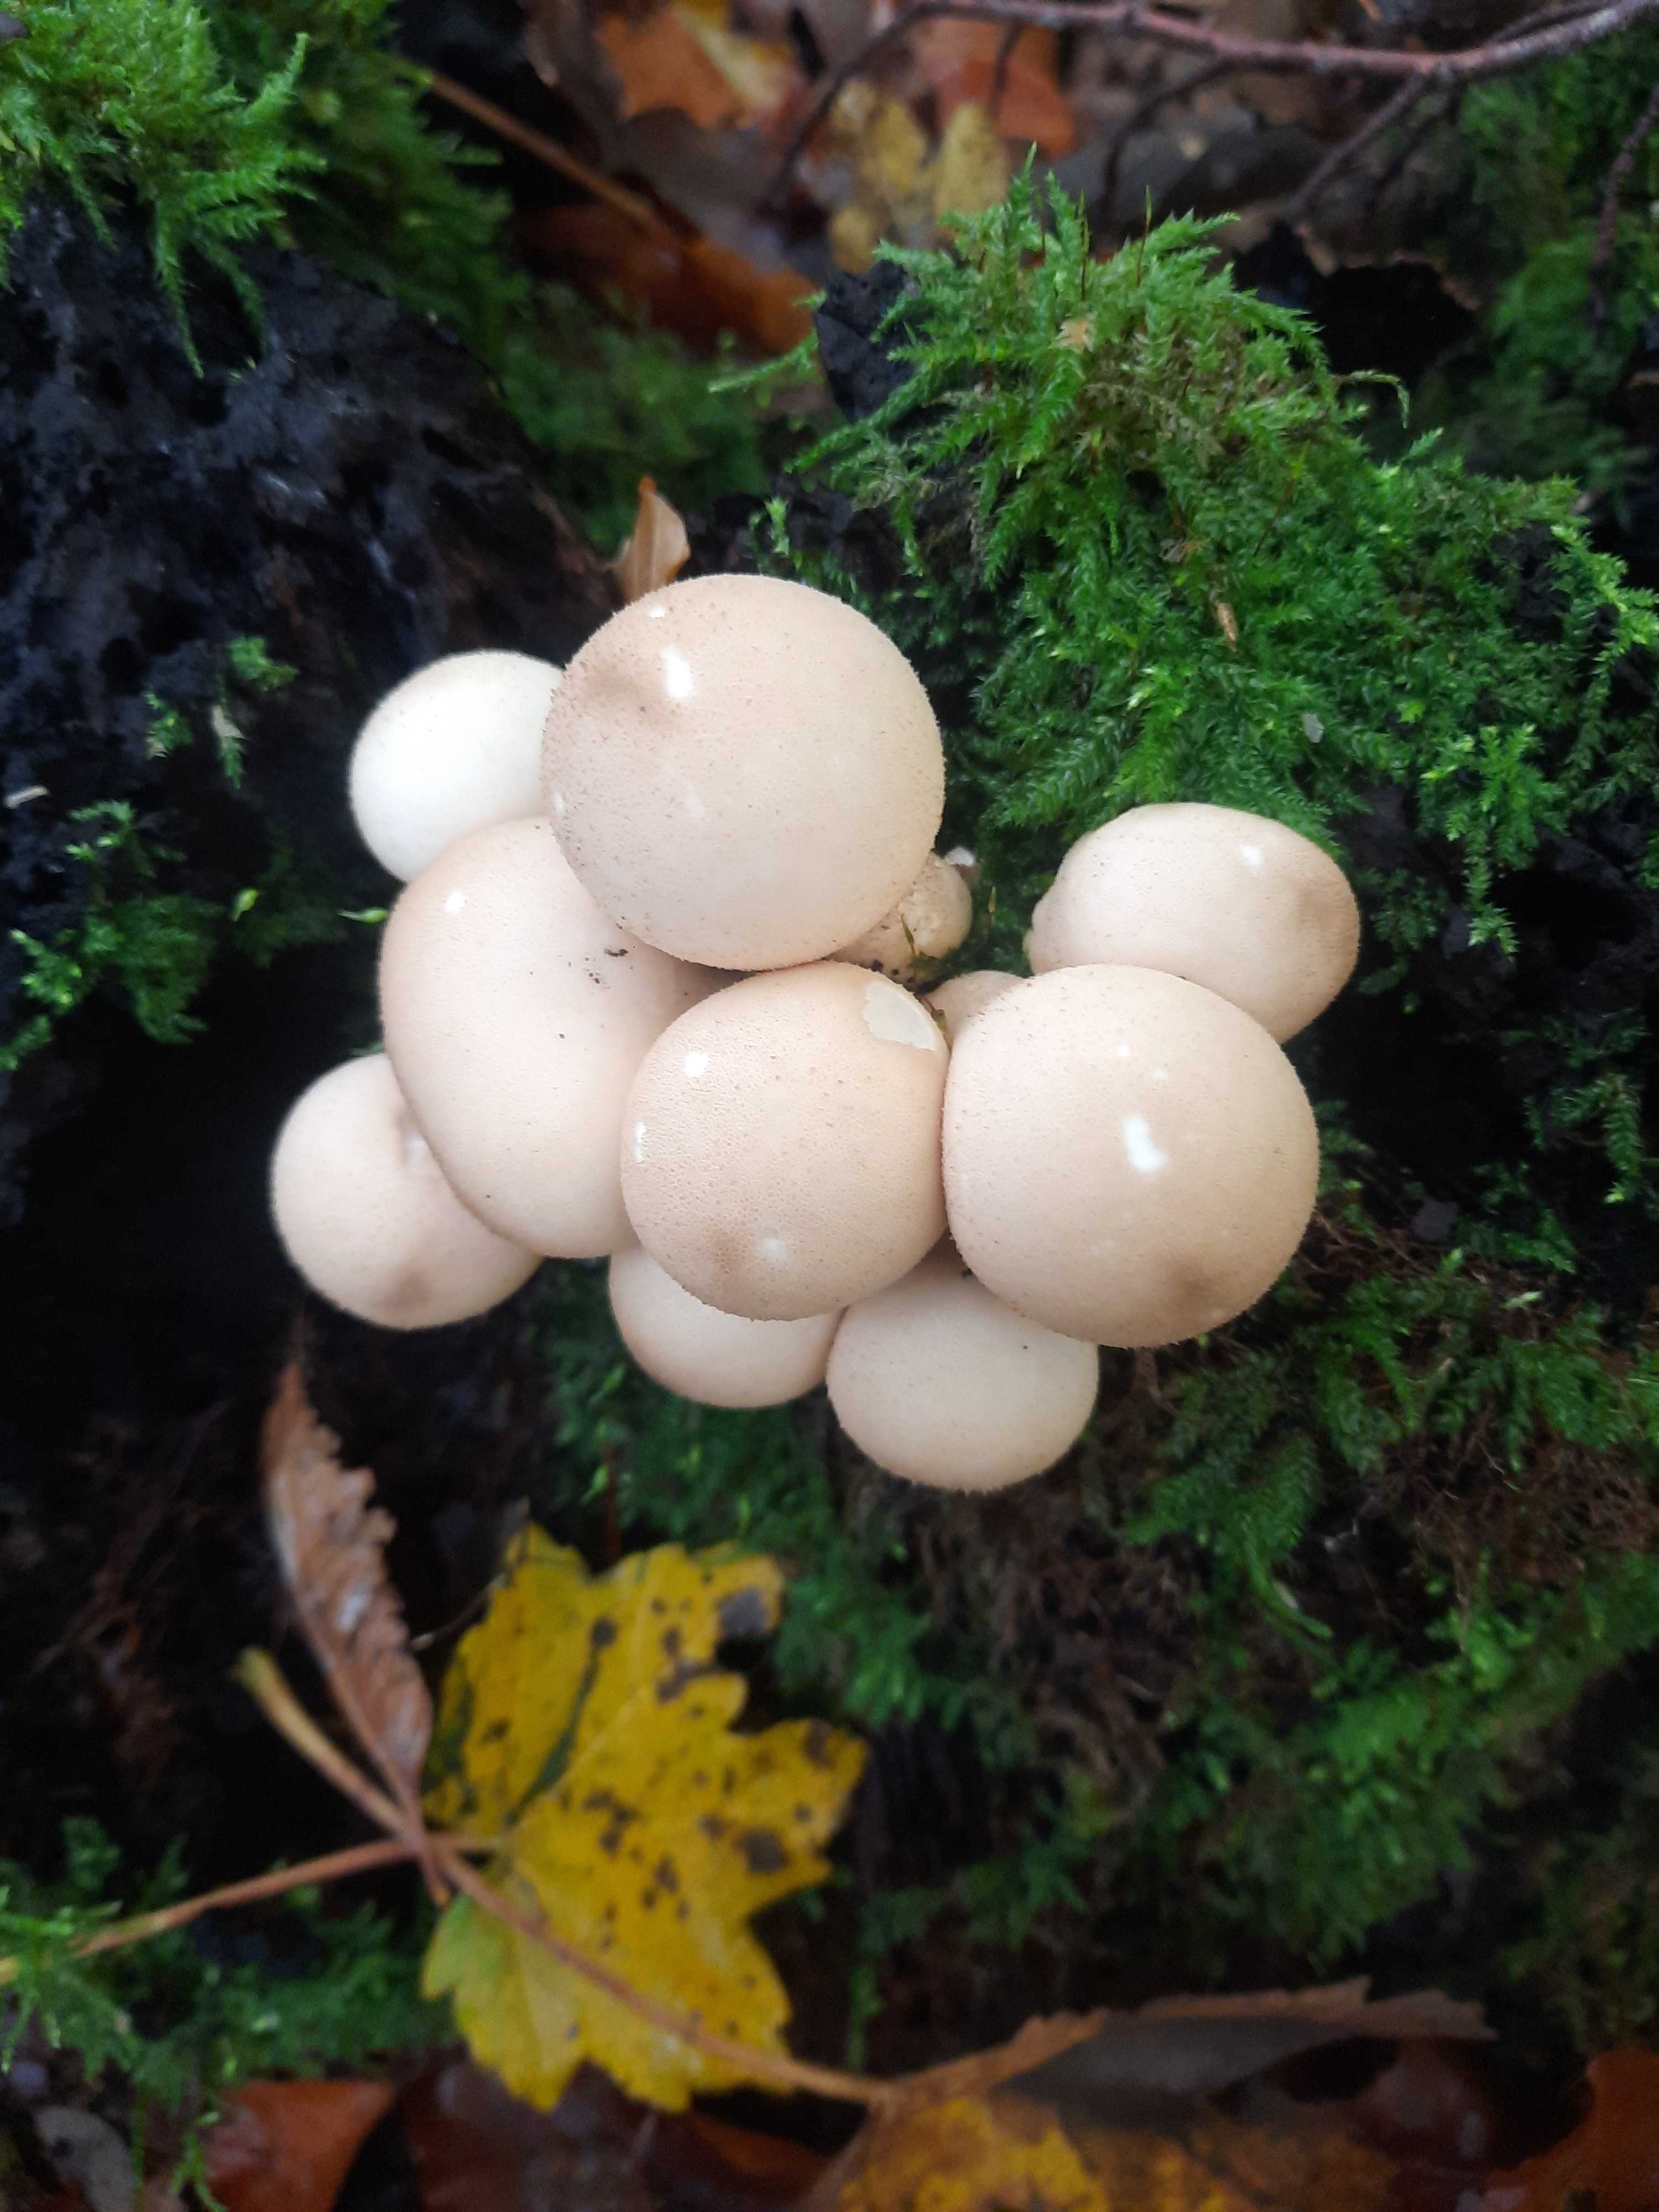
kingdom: Fungi
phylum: Basidiomycota
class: Agaricomycetes
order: Agaricales
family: Lycoperdaceae
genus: Apioperdon
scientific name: Apioperdon pyriforme
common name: pære-støvbold
